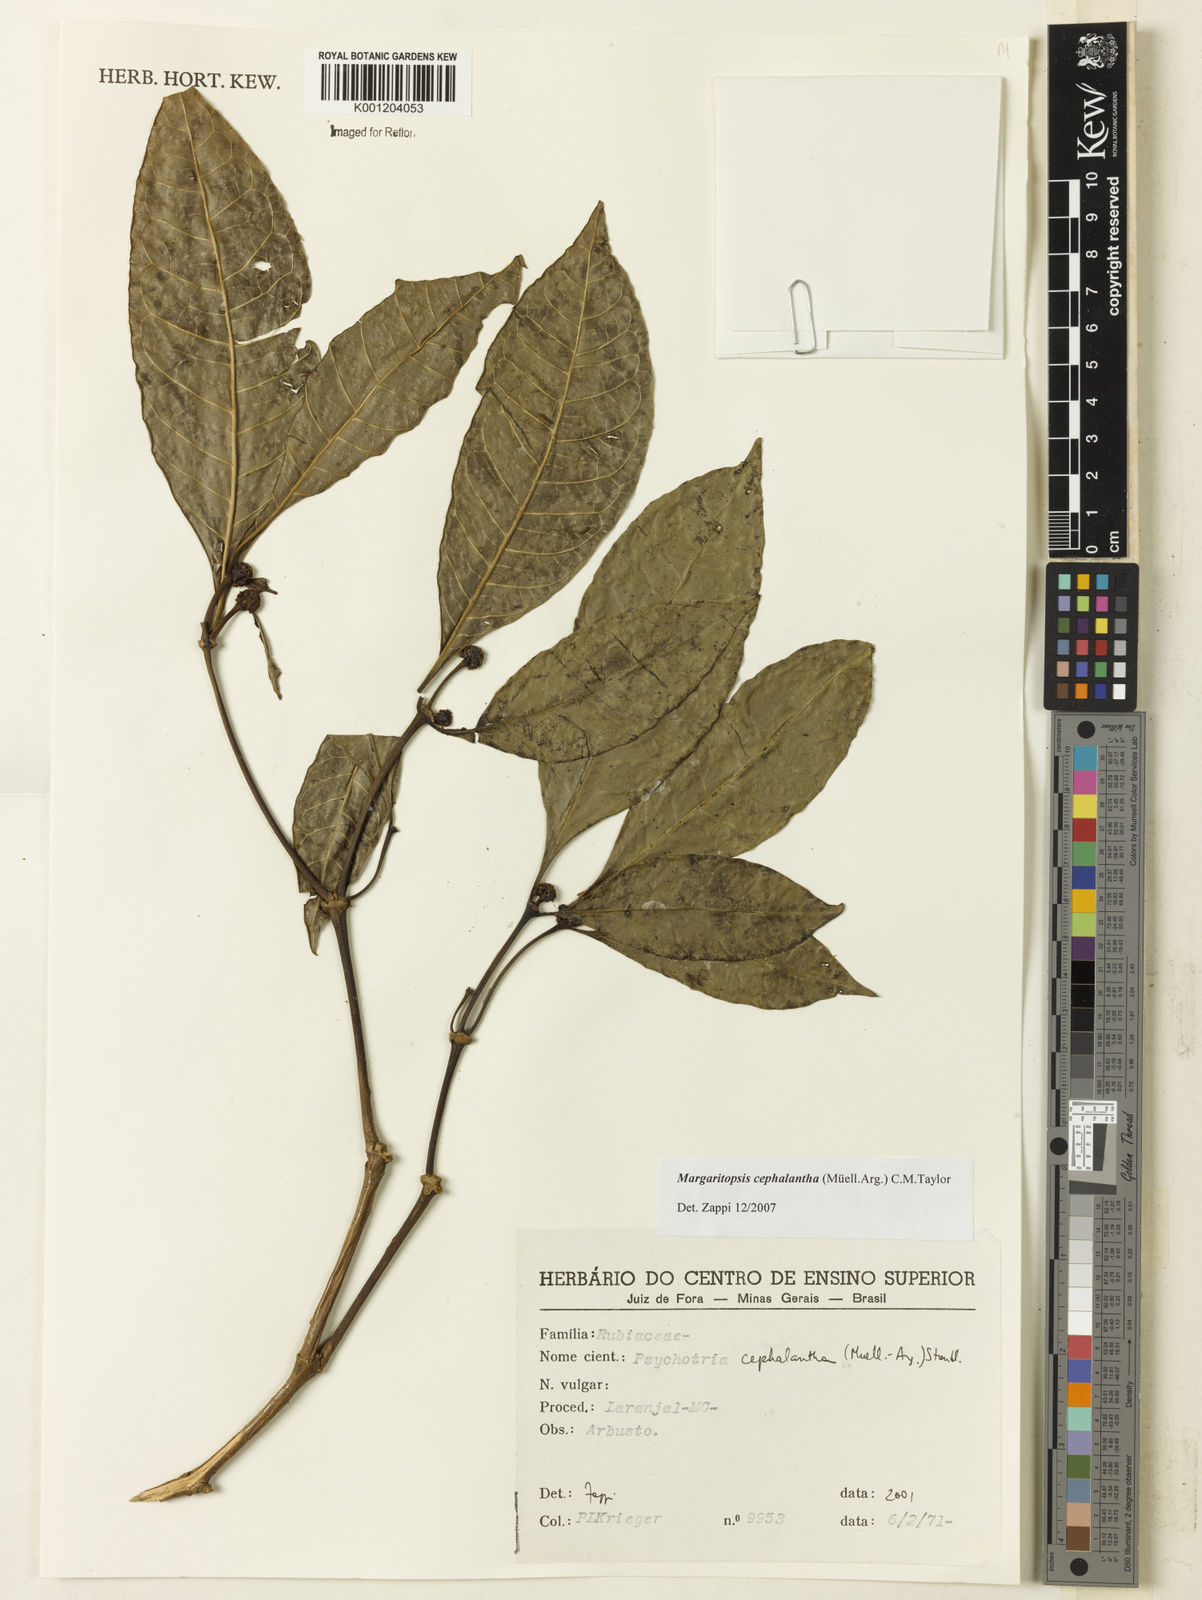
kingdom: Plantae
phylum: Tracheophyta
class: Magnoliopsida
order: Gentianales
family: Rubiaceae
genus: Eumachia
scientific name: Eumachia
